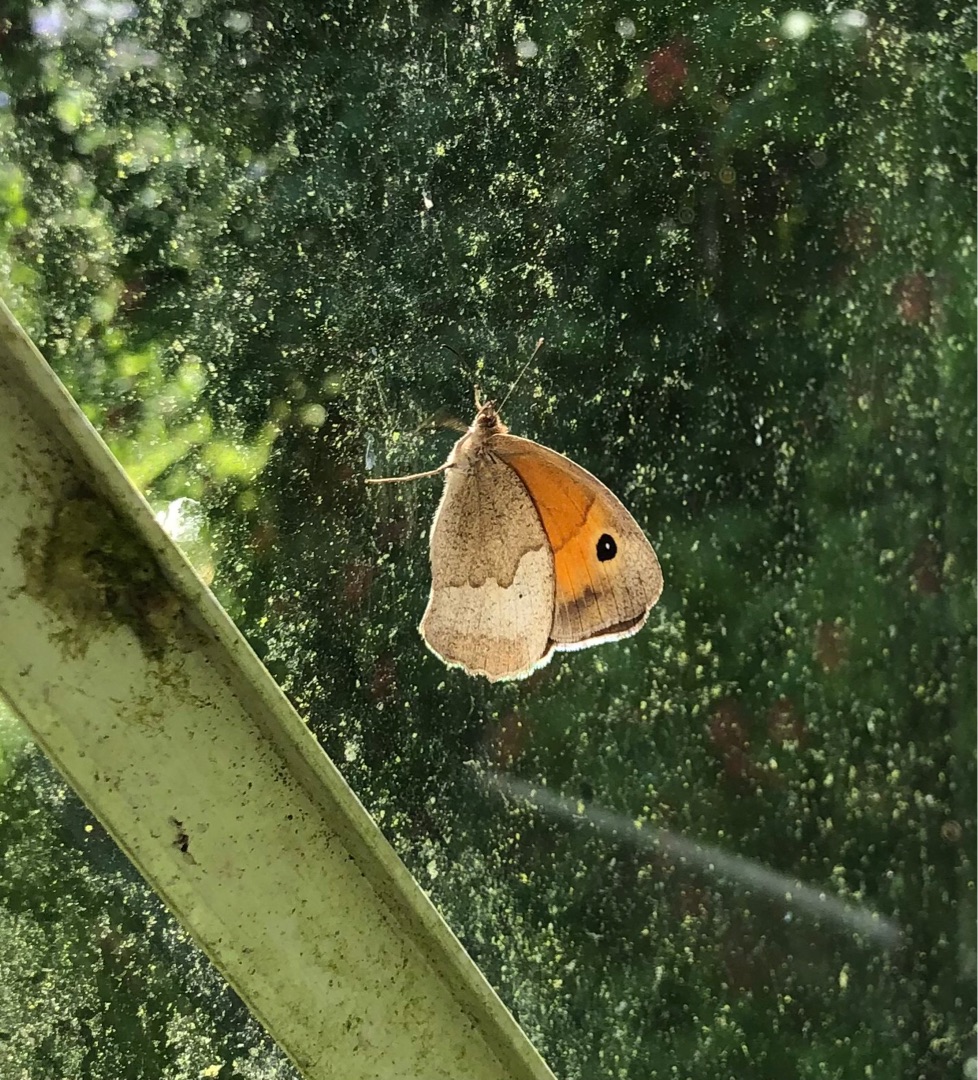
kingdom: Animalia
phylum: Arthropoda
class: Insecta
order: Lepidoptera
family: Nymphalidae
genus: Maniola
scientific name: Maniola jurtina
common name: Græsrandøje
